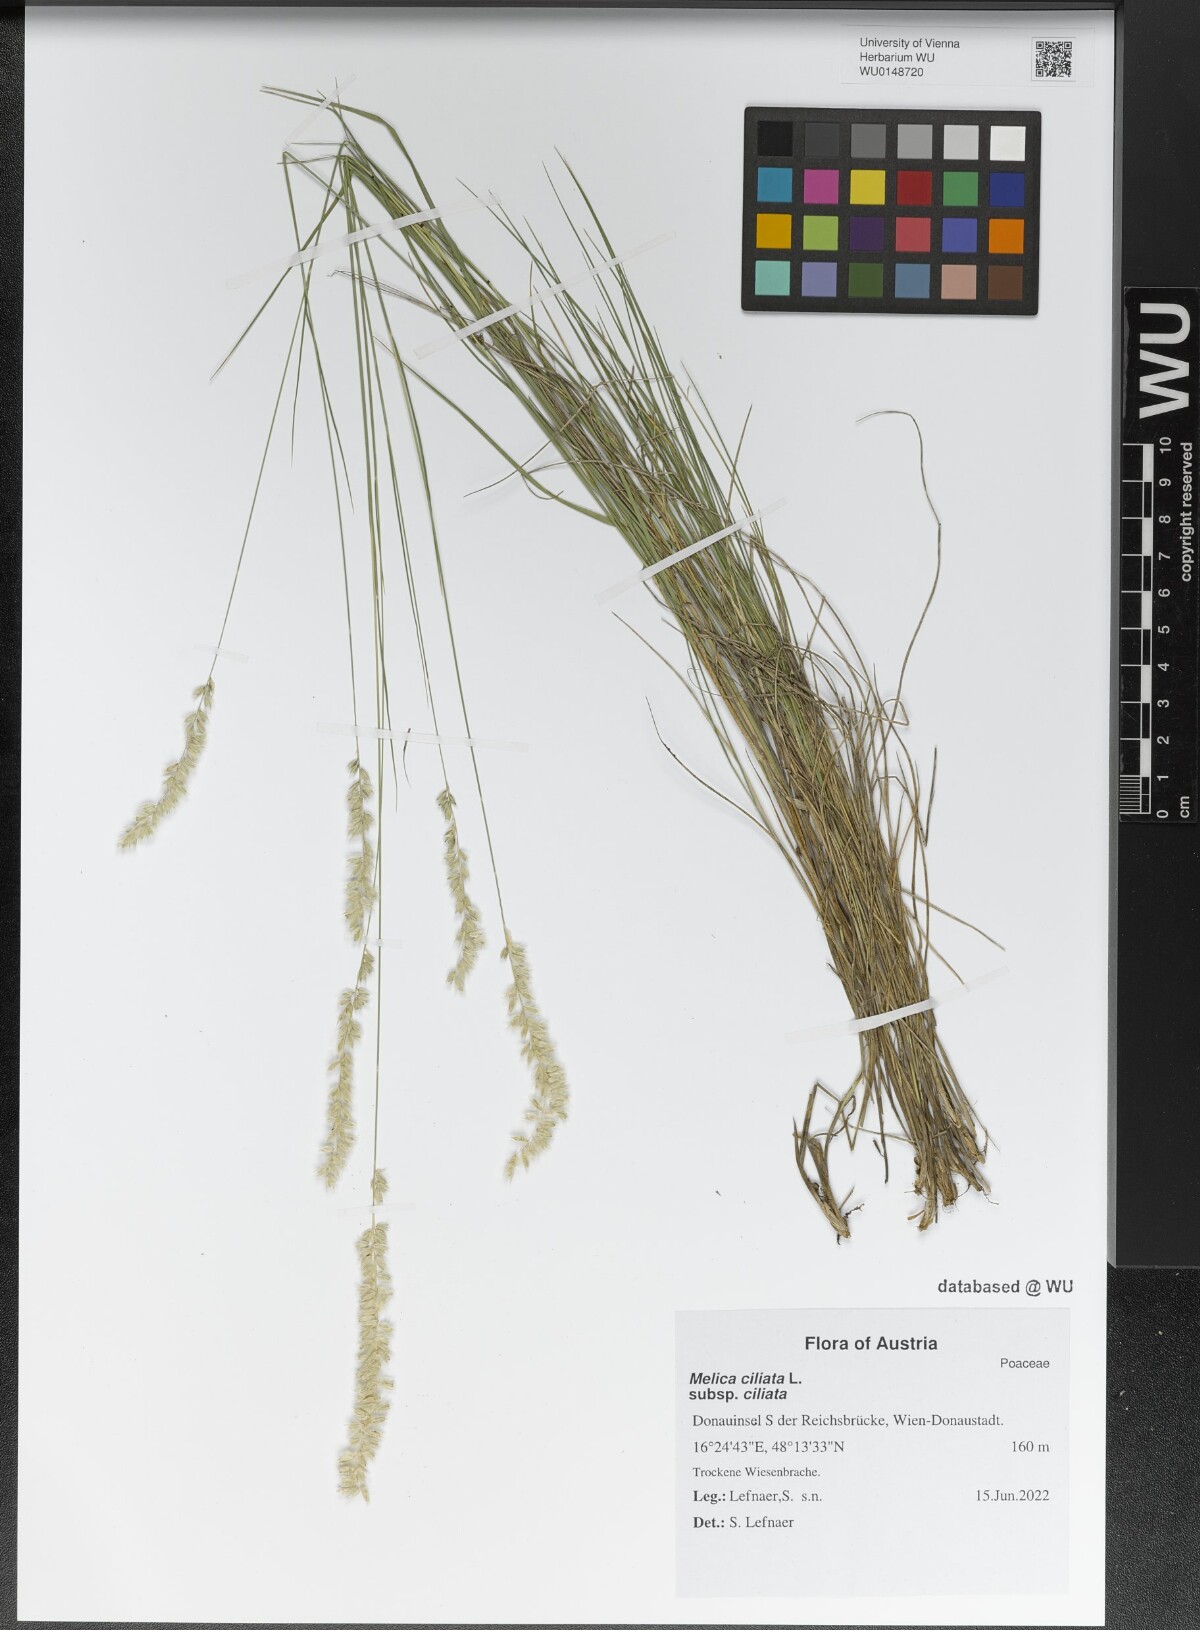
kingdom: Plantae
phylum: Tracheophyta
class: Liliopsida
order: Poales
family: Poaceae
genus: Melica
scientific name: Melica ciliata
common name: Hairy melicgrass
